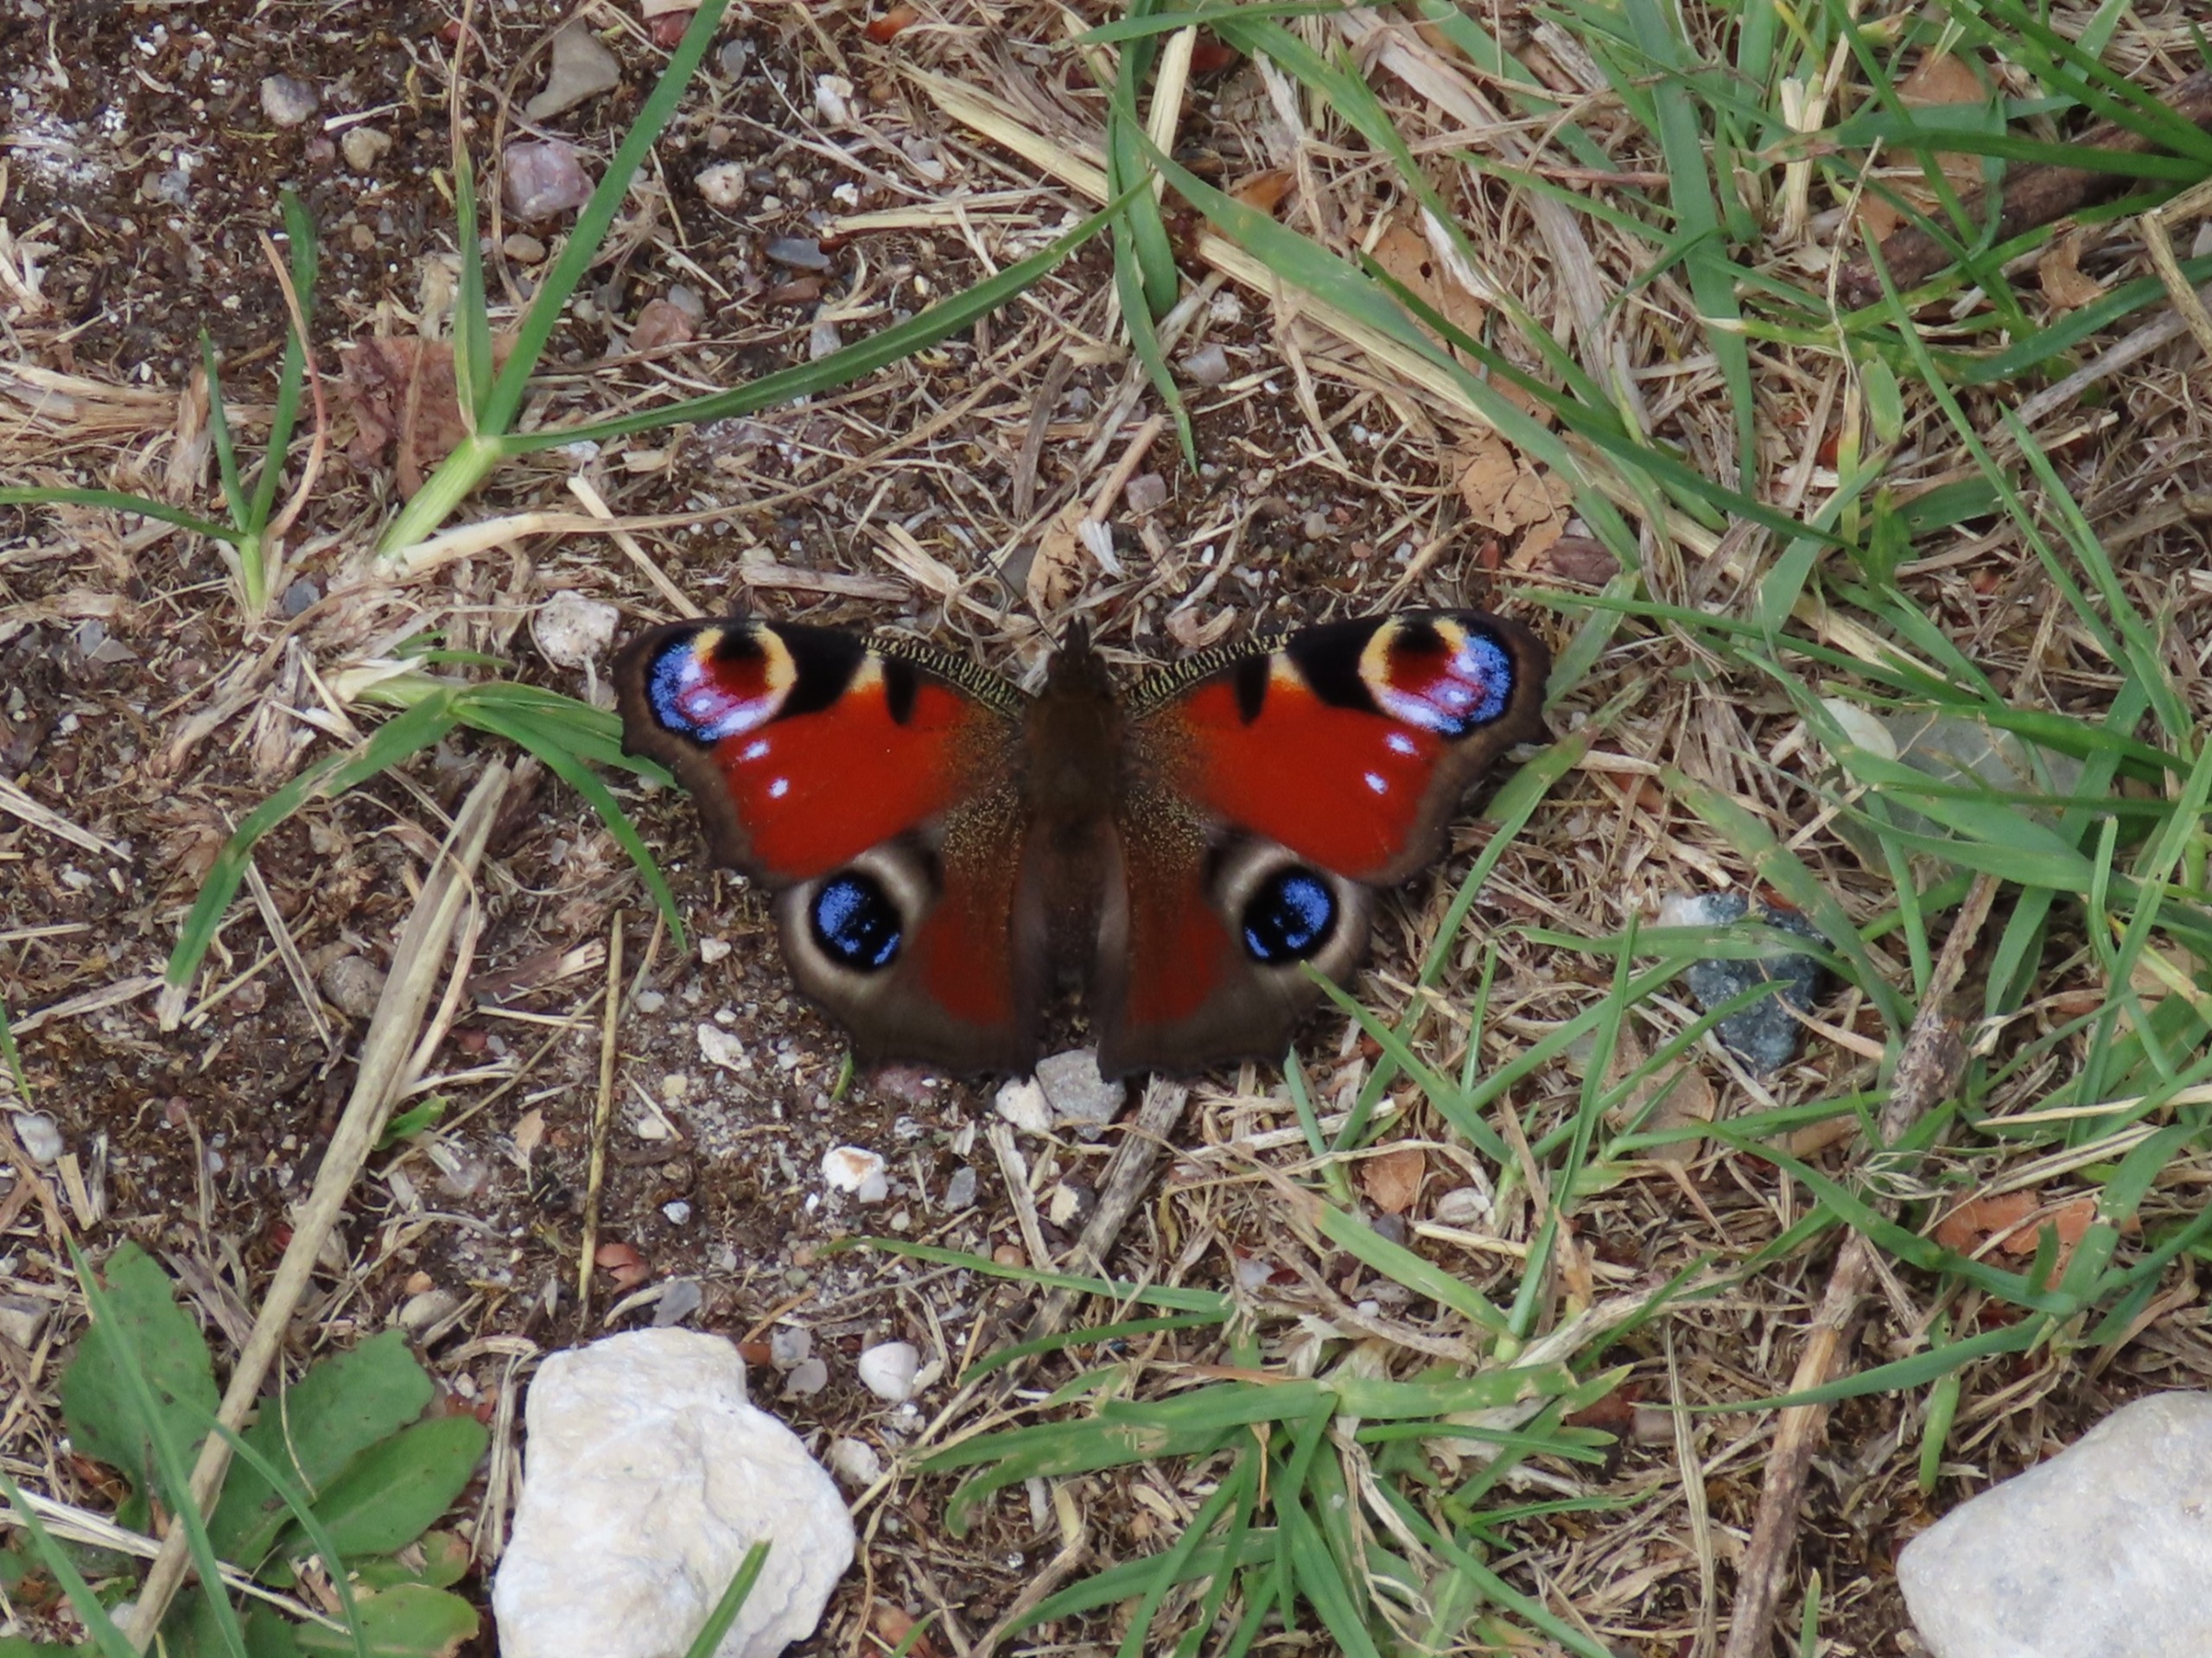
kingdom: Animalia
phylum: Arthropoda
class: Insecta
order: Lepidoptera
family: Nymphalidae
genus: Aglais
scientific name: Aglais io
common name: Dagpåfugleøje
